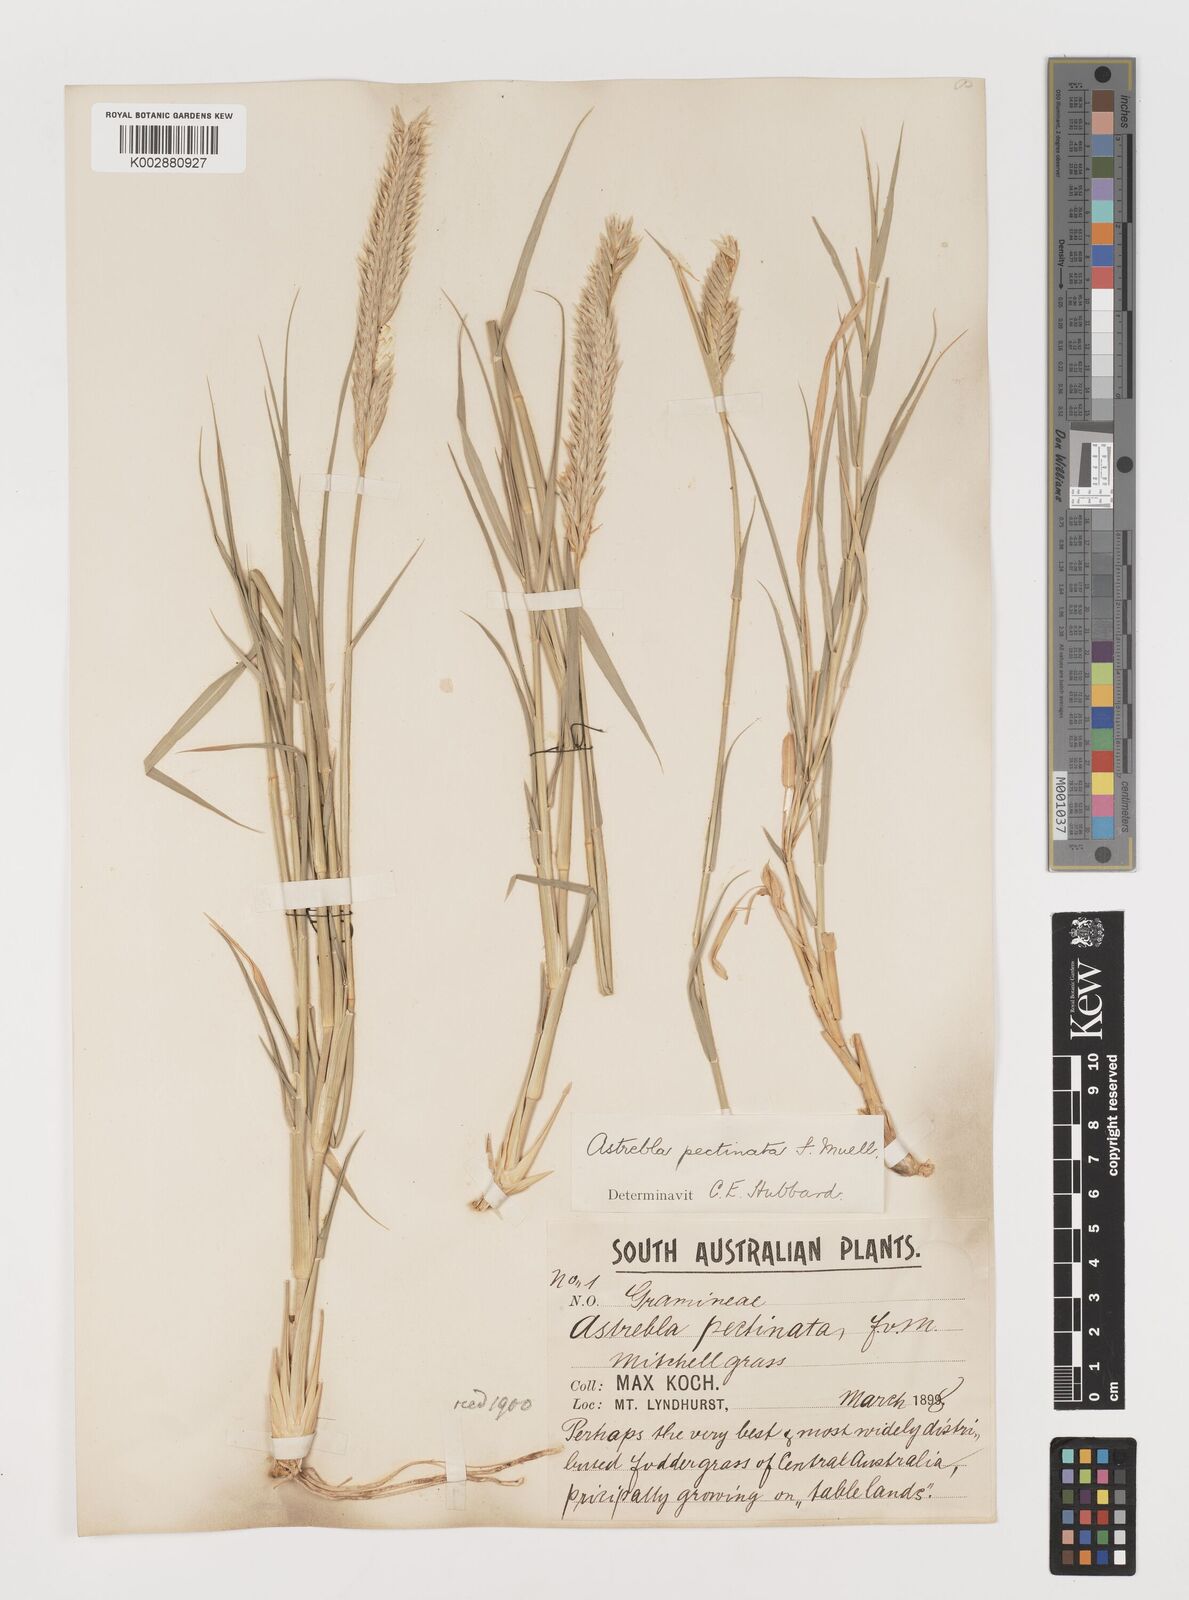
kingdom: Plantae
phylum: Tracheophyta
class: Liliopsida
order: Poales
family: Poaceae
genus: Astrebla
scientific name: Astrebla pectinata
